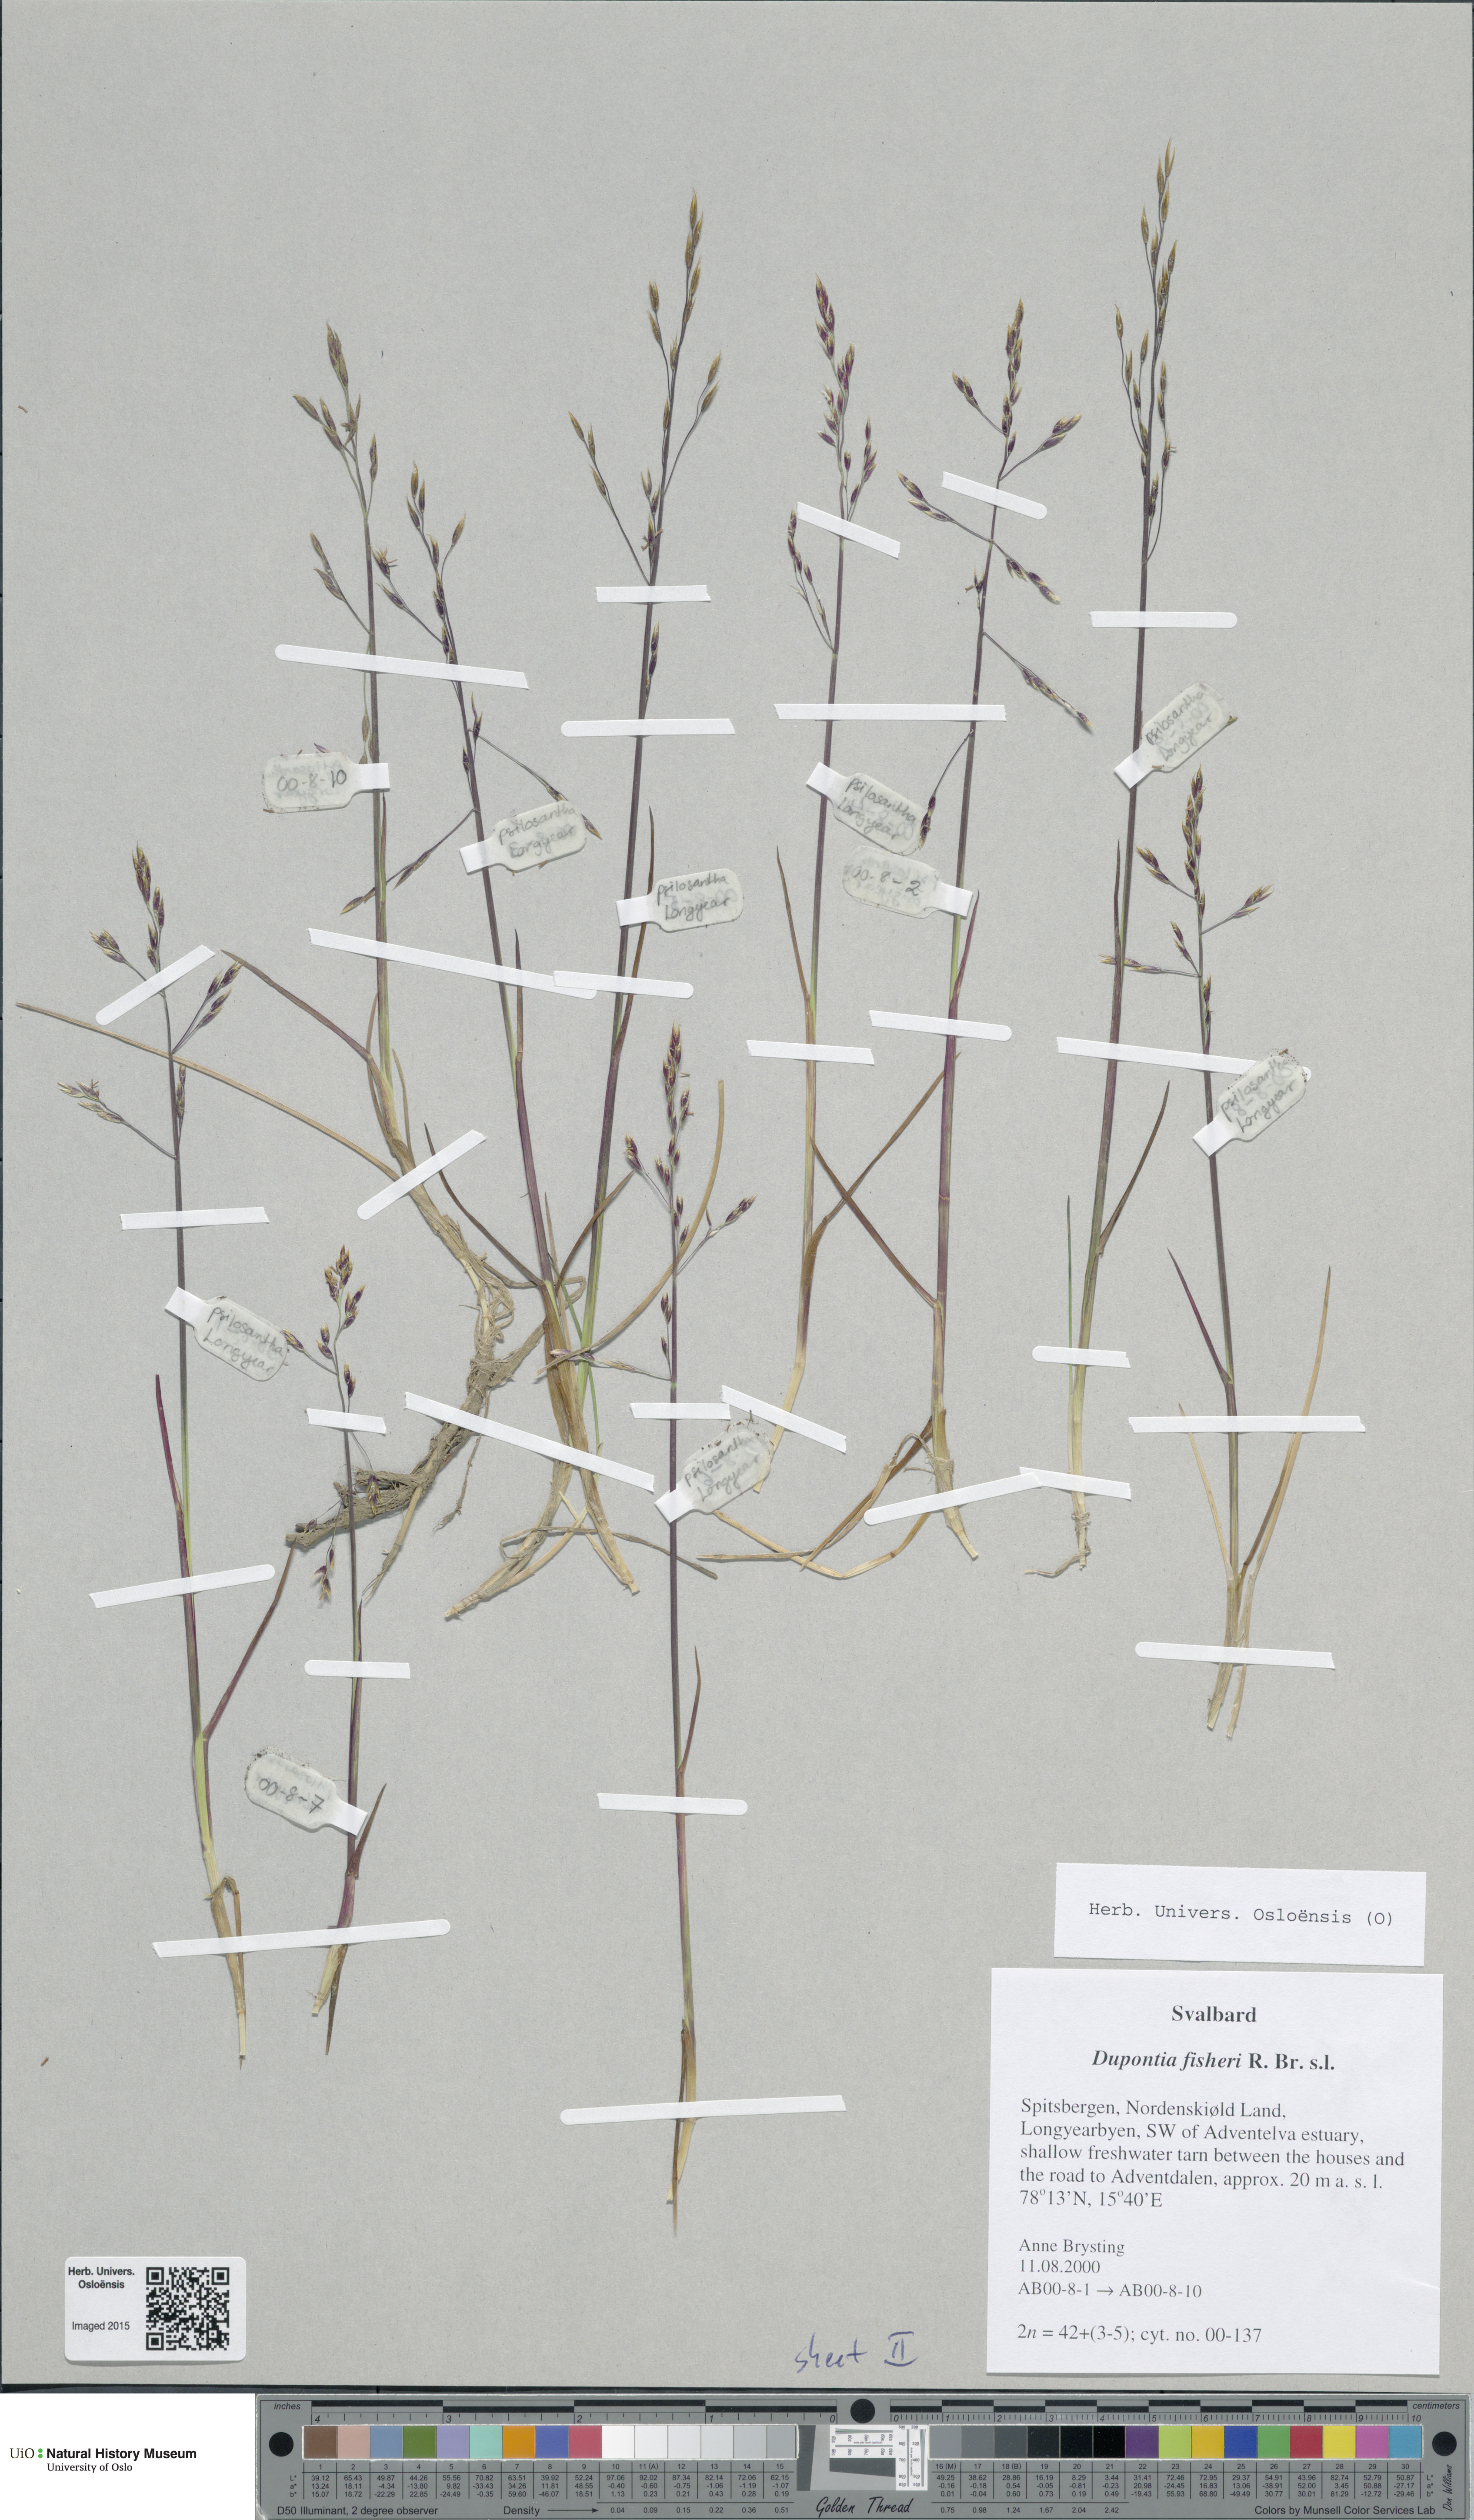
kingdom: Plantae
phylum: Tracheophyta
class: Liliopsida
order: Poales
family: Poaceae
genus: Dupontia
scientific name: Dupontia fisheri
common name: Tundra grass
